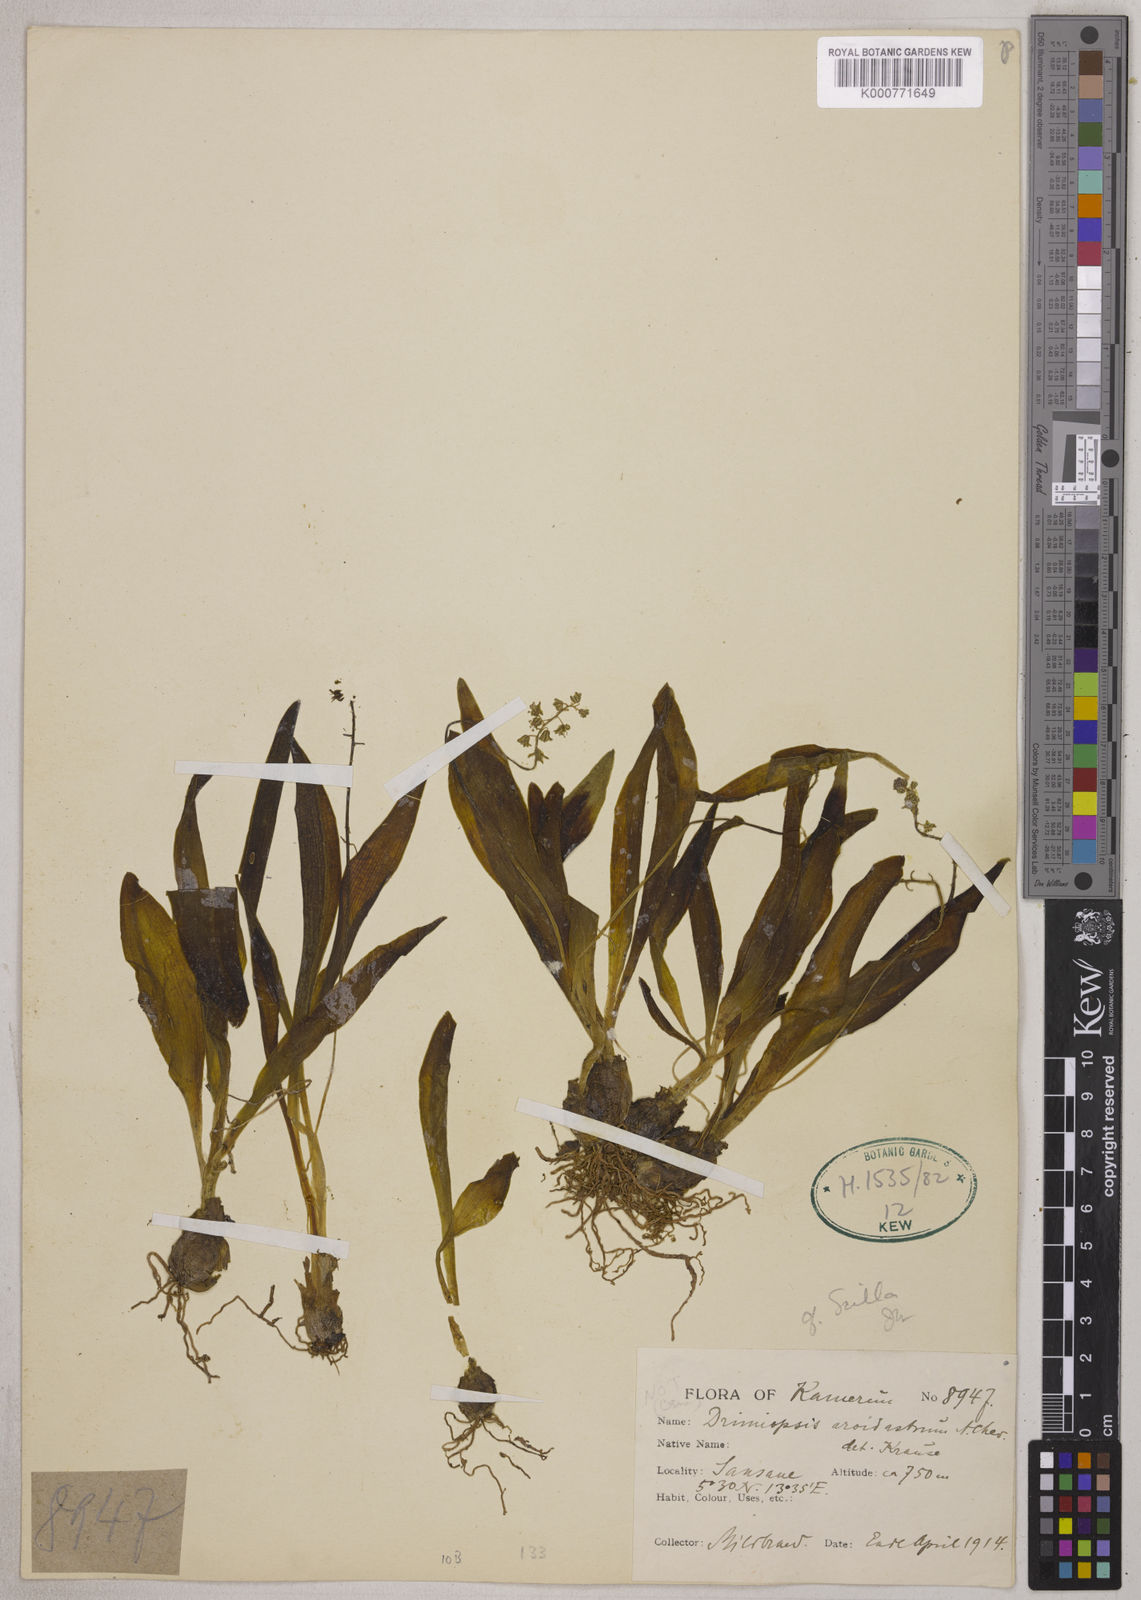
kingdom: Plantae
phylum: Tracheophyta
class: Liliopsida
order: Asparagales
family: Asparagaceae
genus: Drimiopsis
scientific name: Drimiopsis barteri
